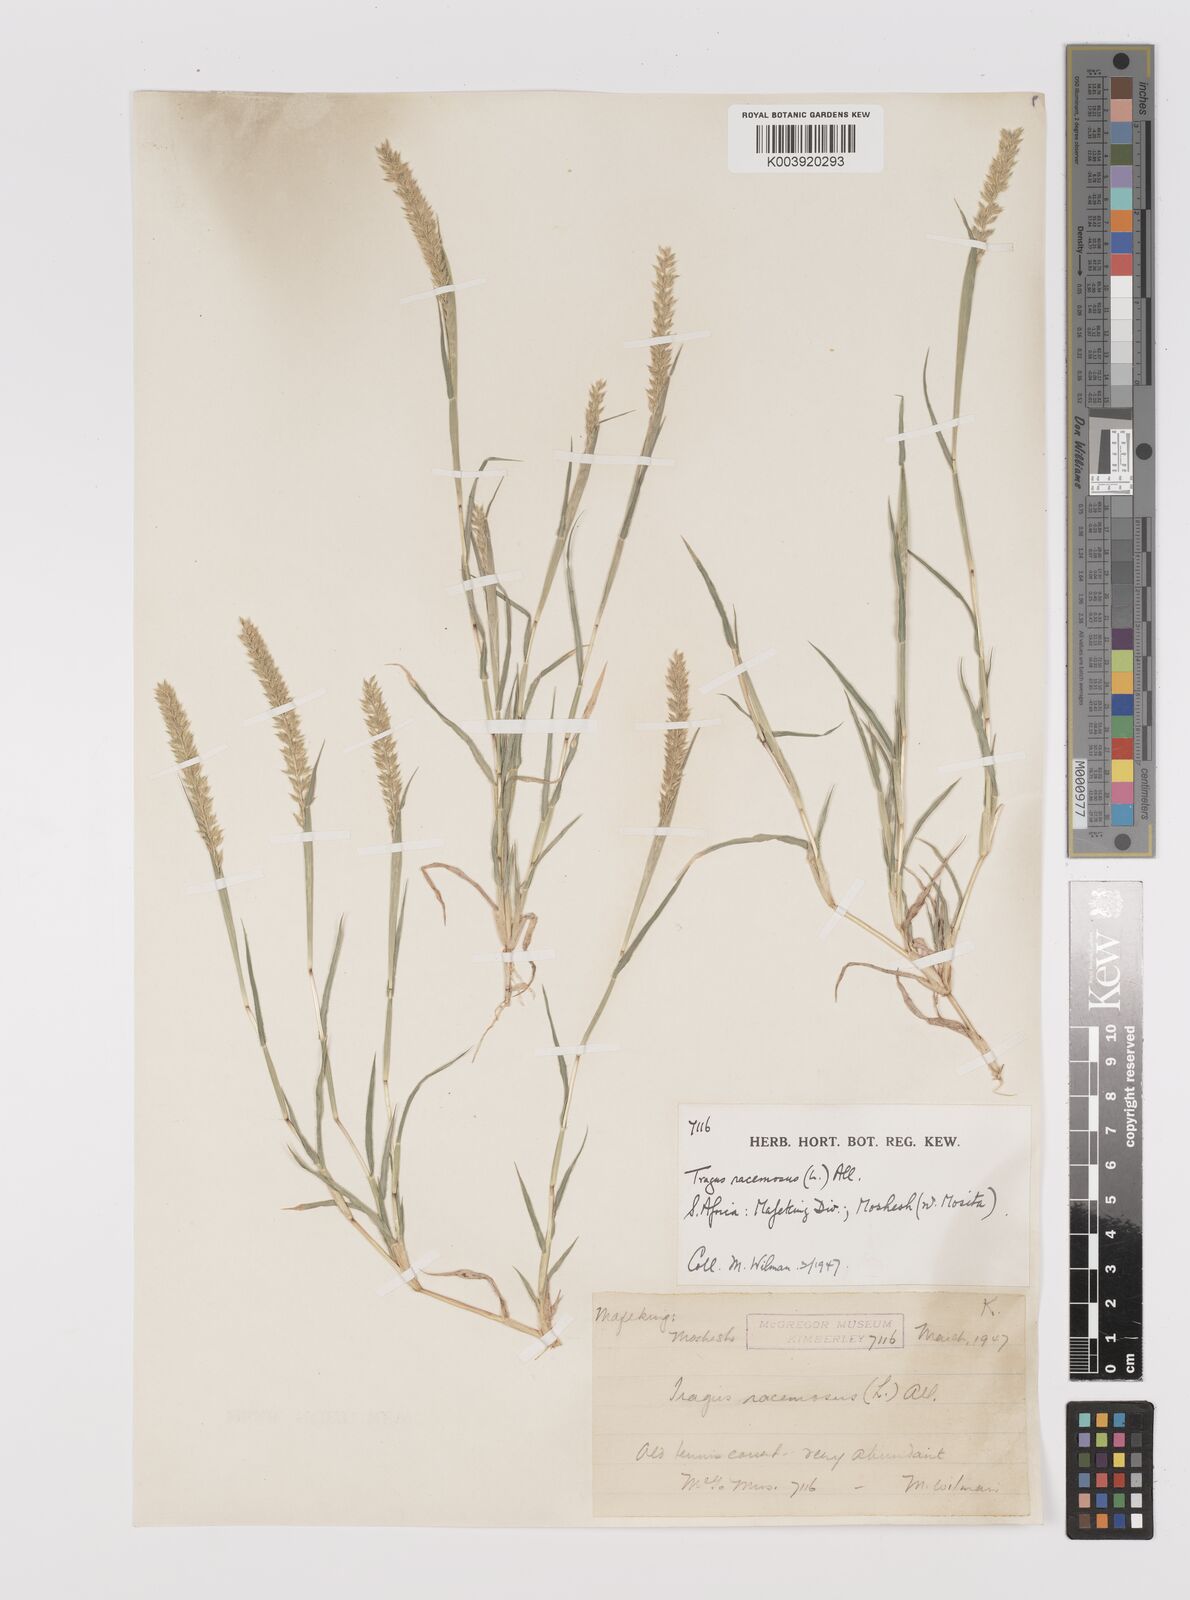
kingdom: Plantae
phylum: Tracheophyta
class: Liliopsida
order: Poales
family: Poaceae
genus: Tragus
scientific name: Tragus racemosus
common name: European bur-grass
